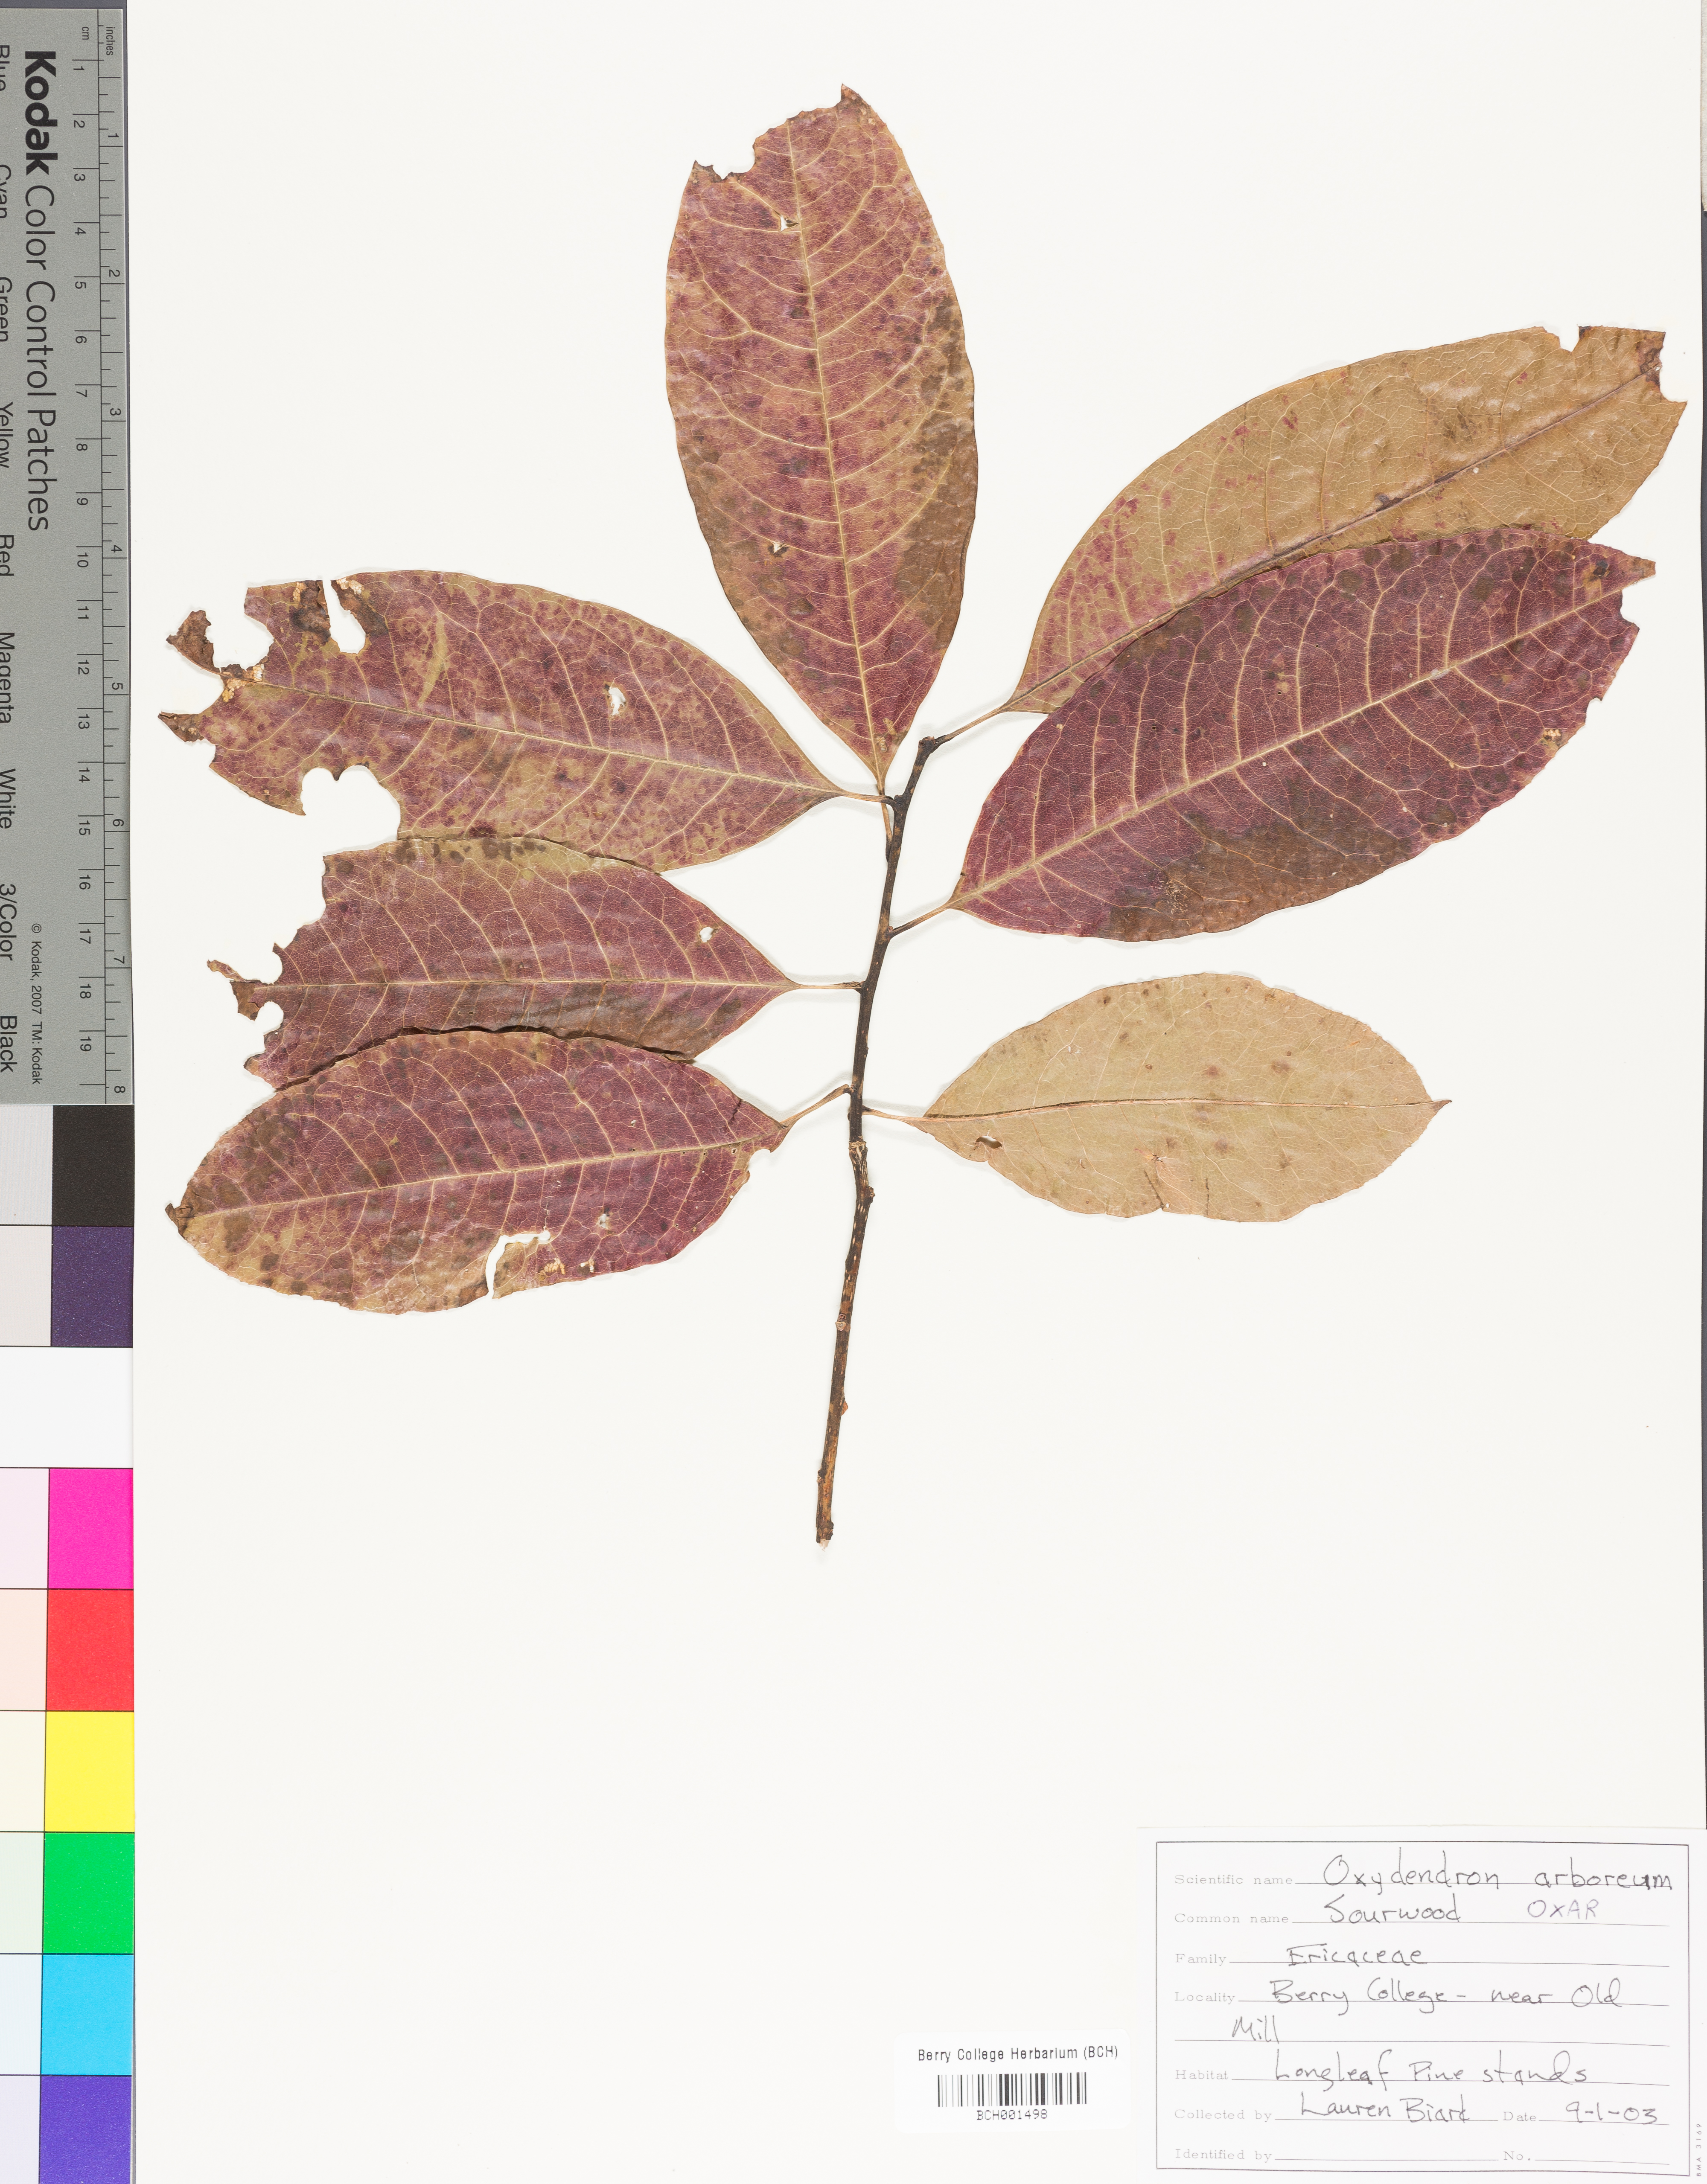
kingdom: Plantae
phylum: Tracheophyta
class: Magnoliopsida
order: Ericales
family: Ericaceae
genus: Oxydendrum
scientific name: Oxydendrum arboreum
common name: Sourwood
